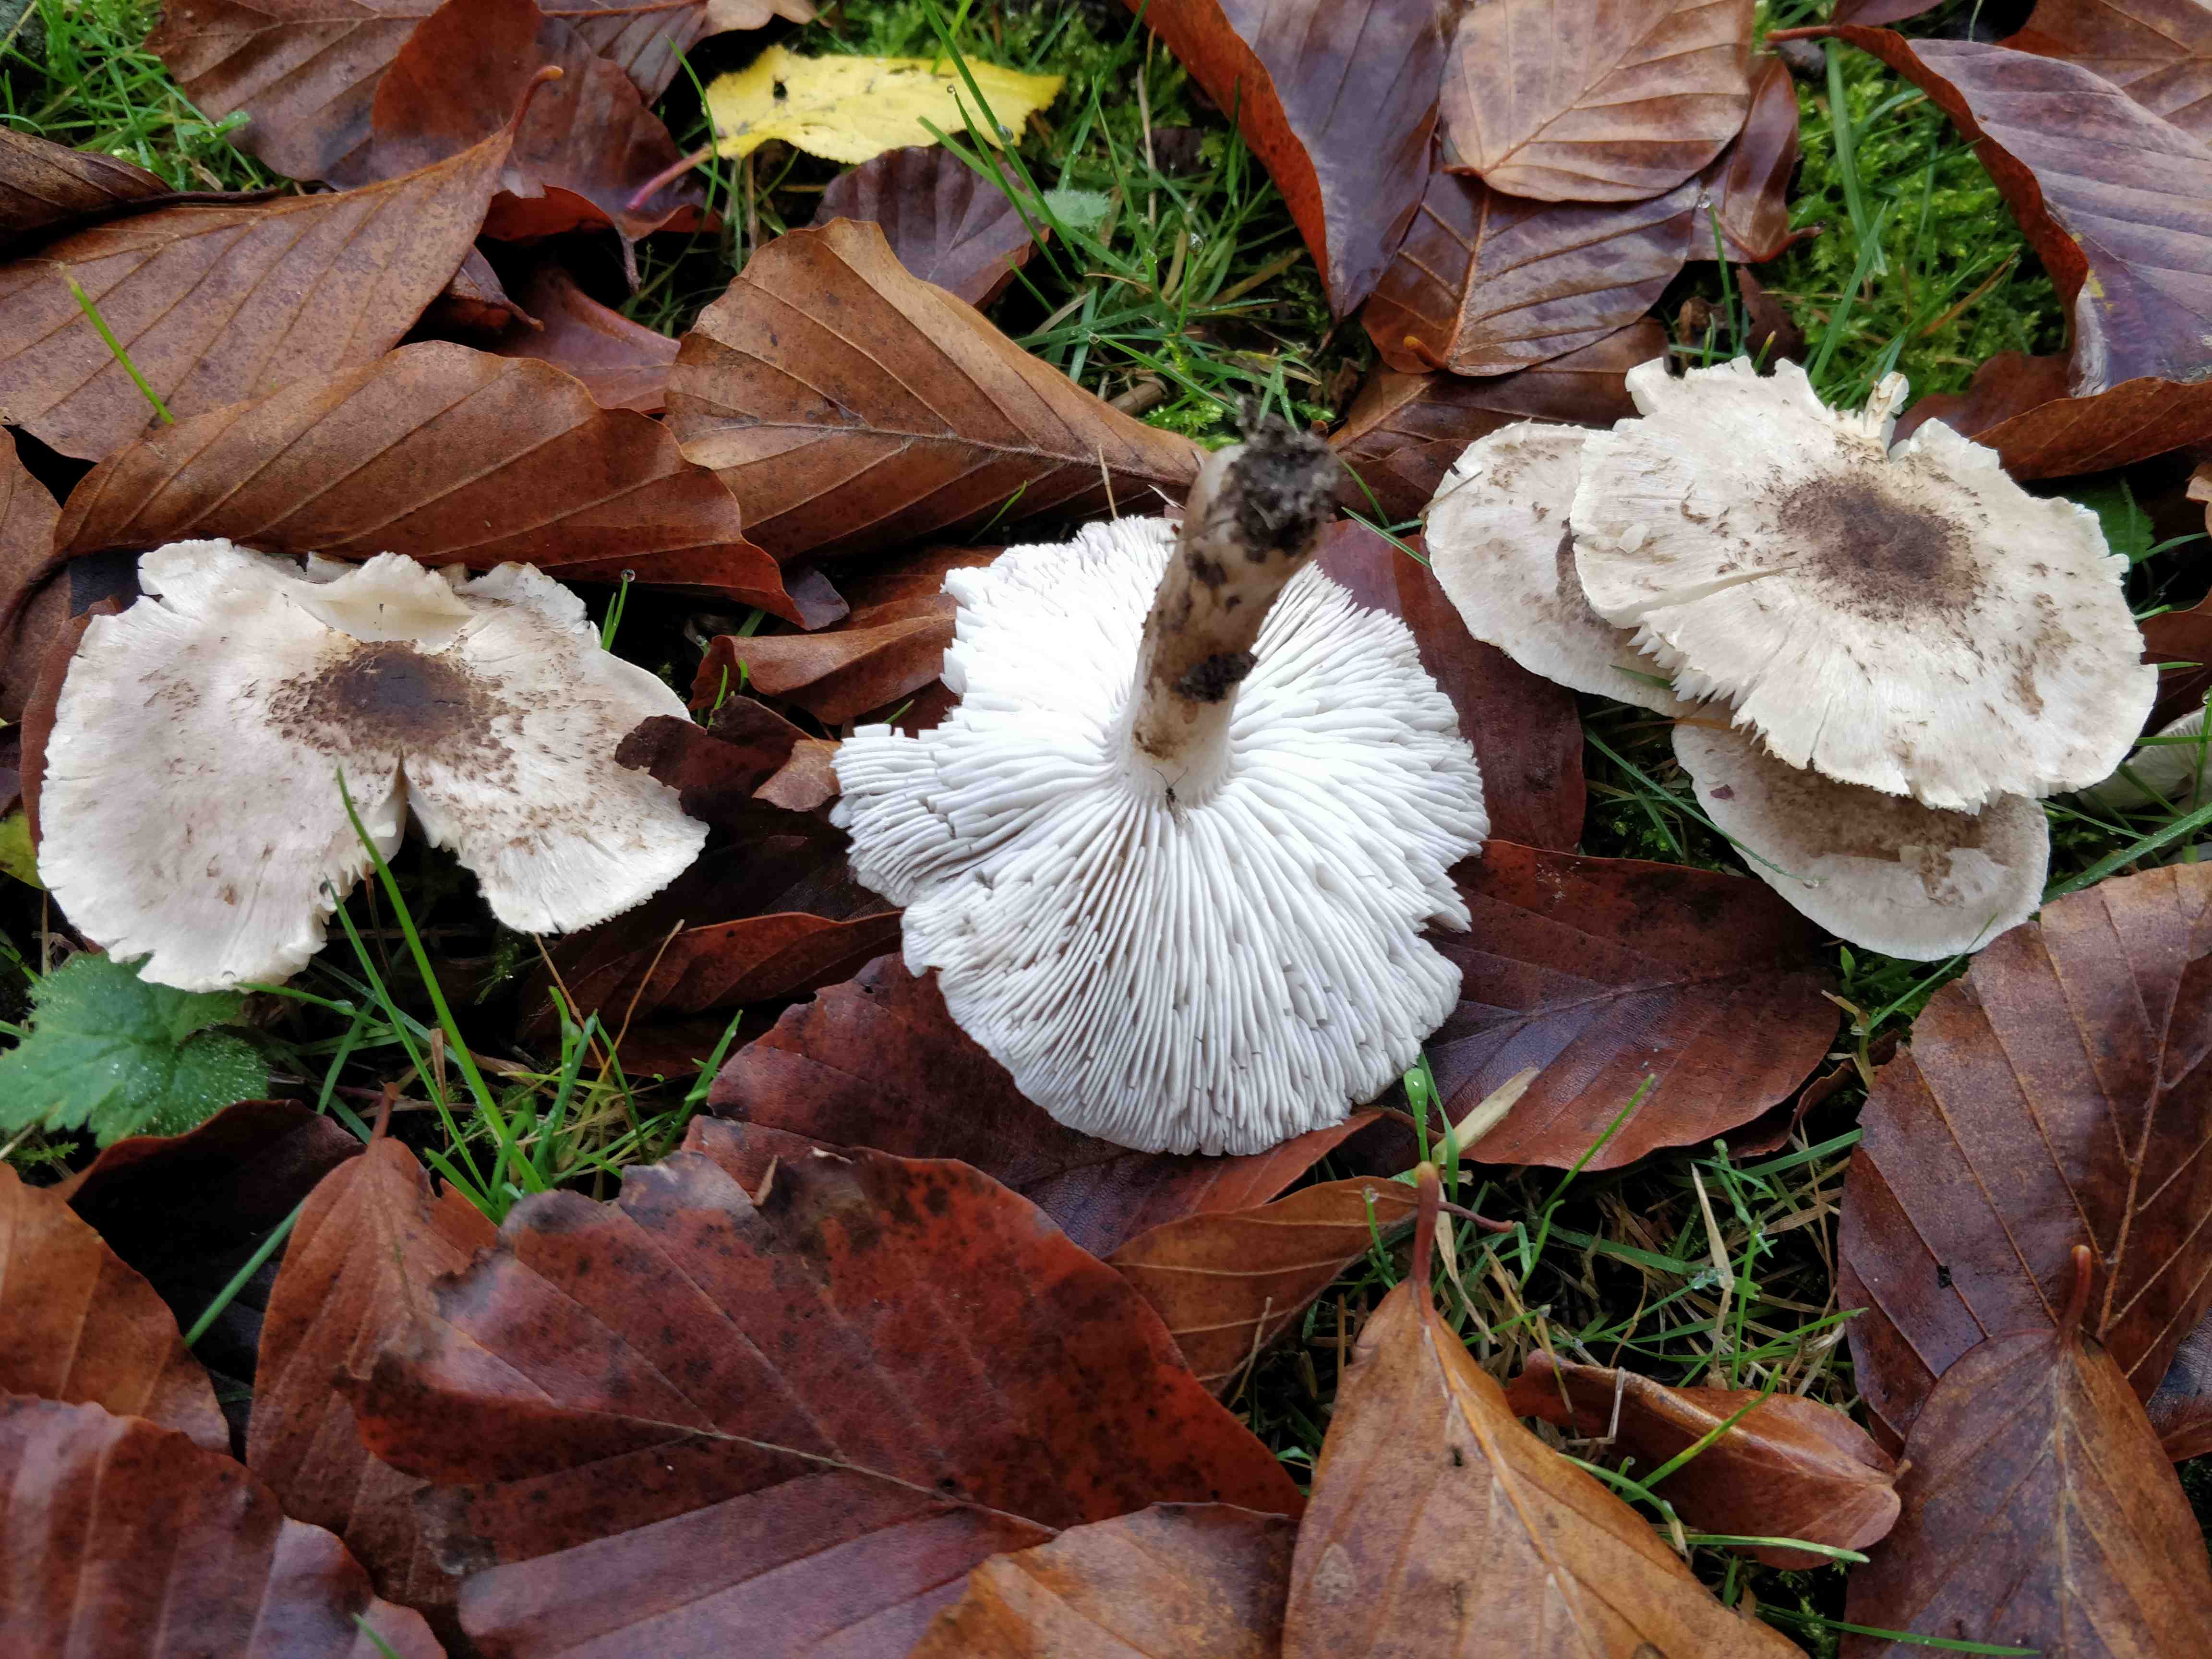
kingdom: Fungi
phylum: Basidiomycota
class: Agaricomycetes
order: Agaricales
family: Tricholomataceae
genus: Tricholoma
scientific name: Tricholoma scalpturatum
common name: gulplettet ridderhat
